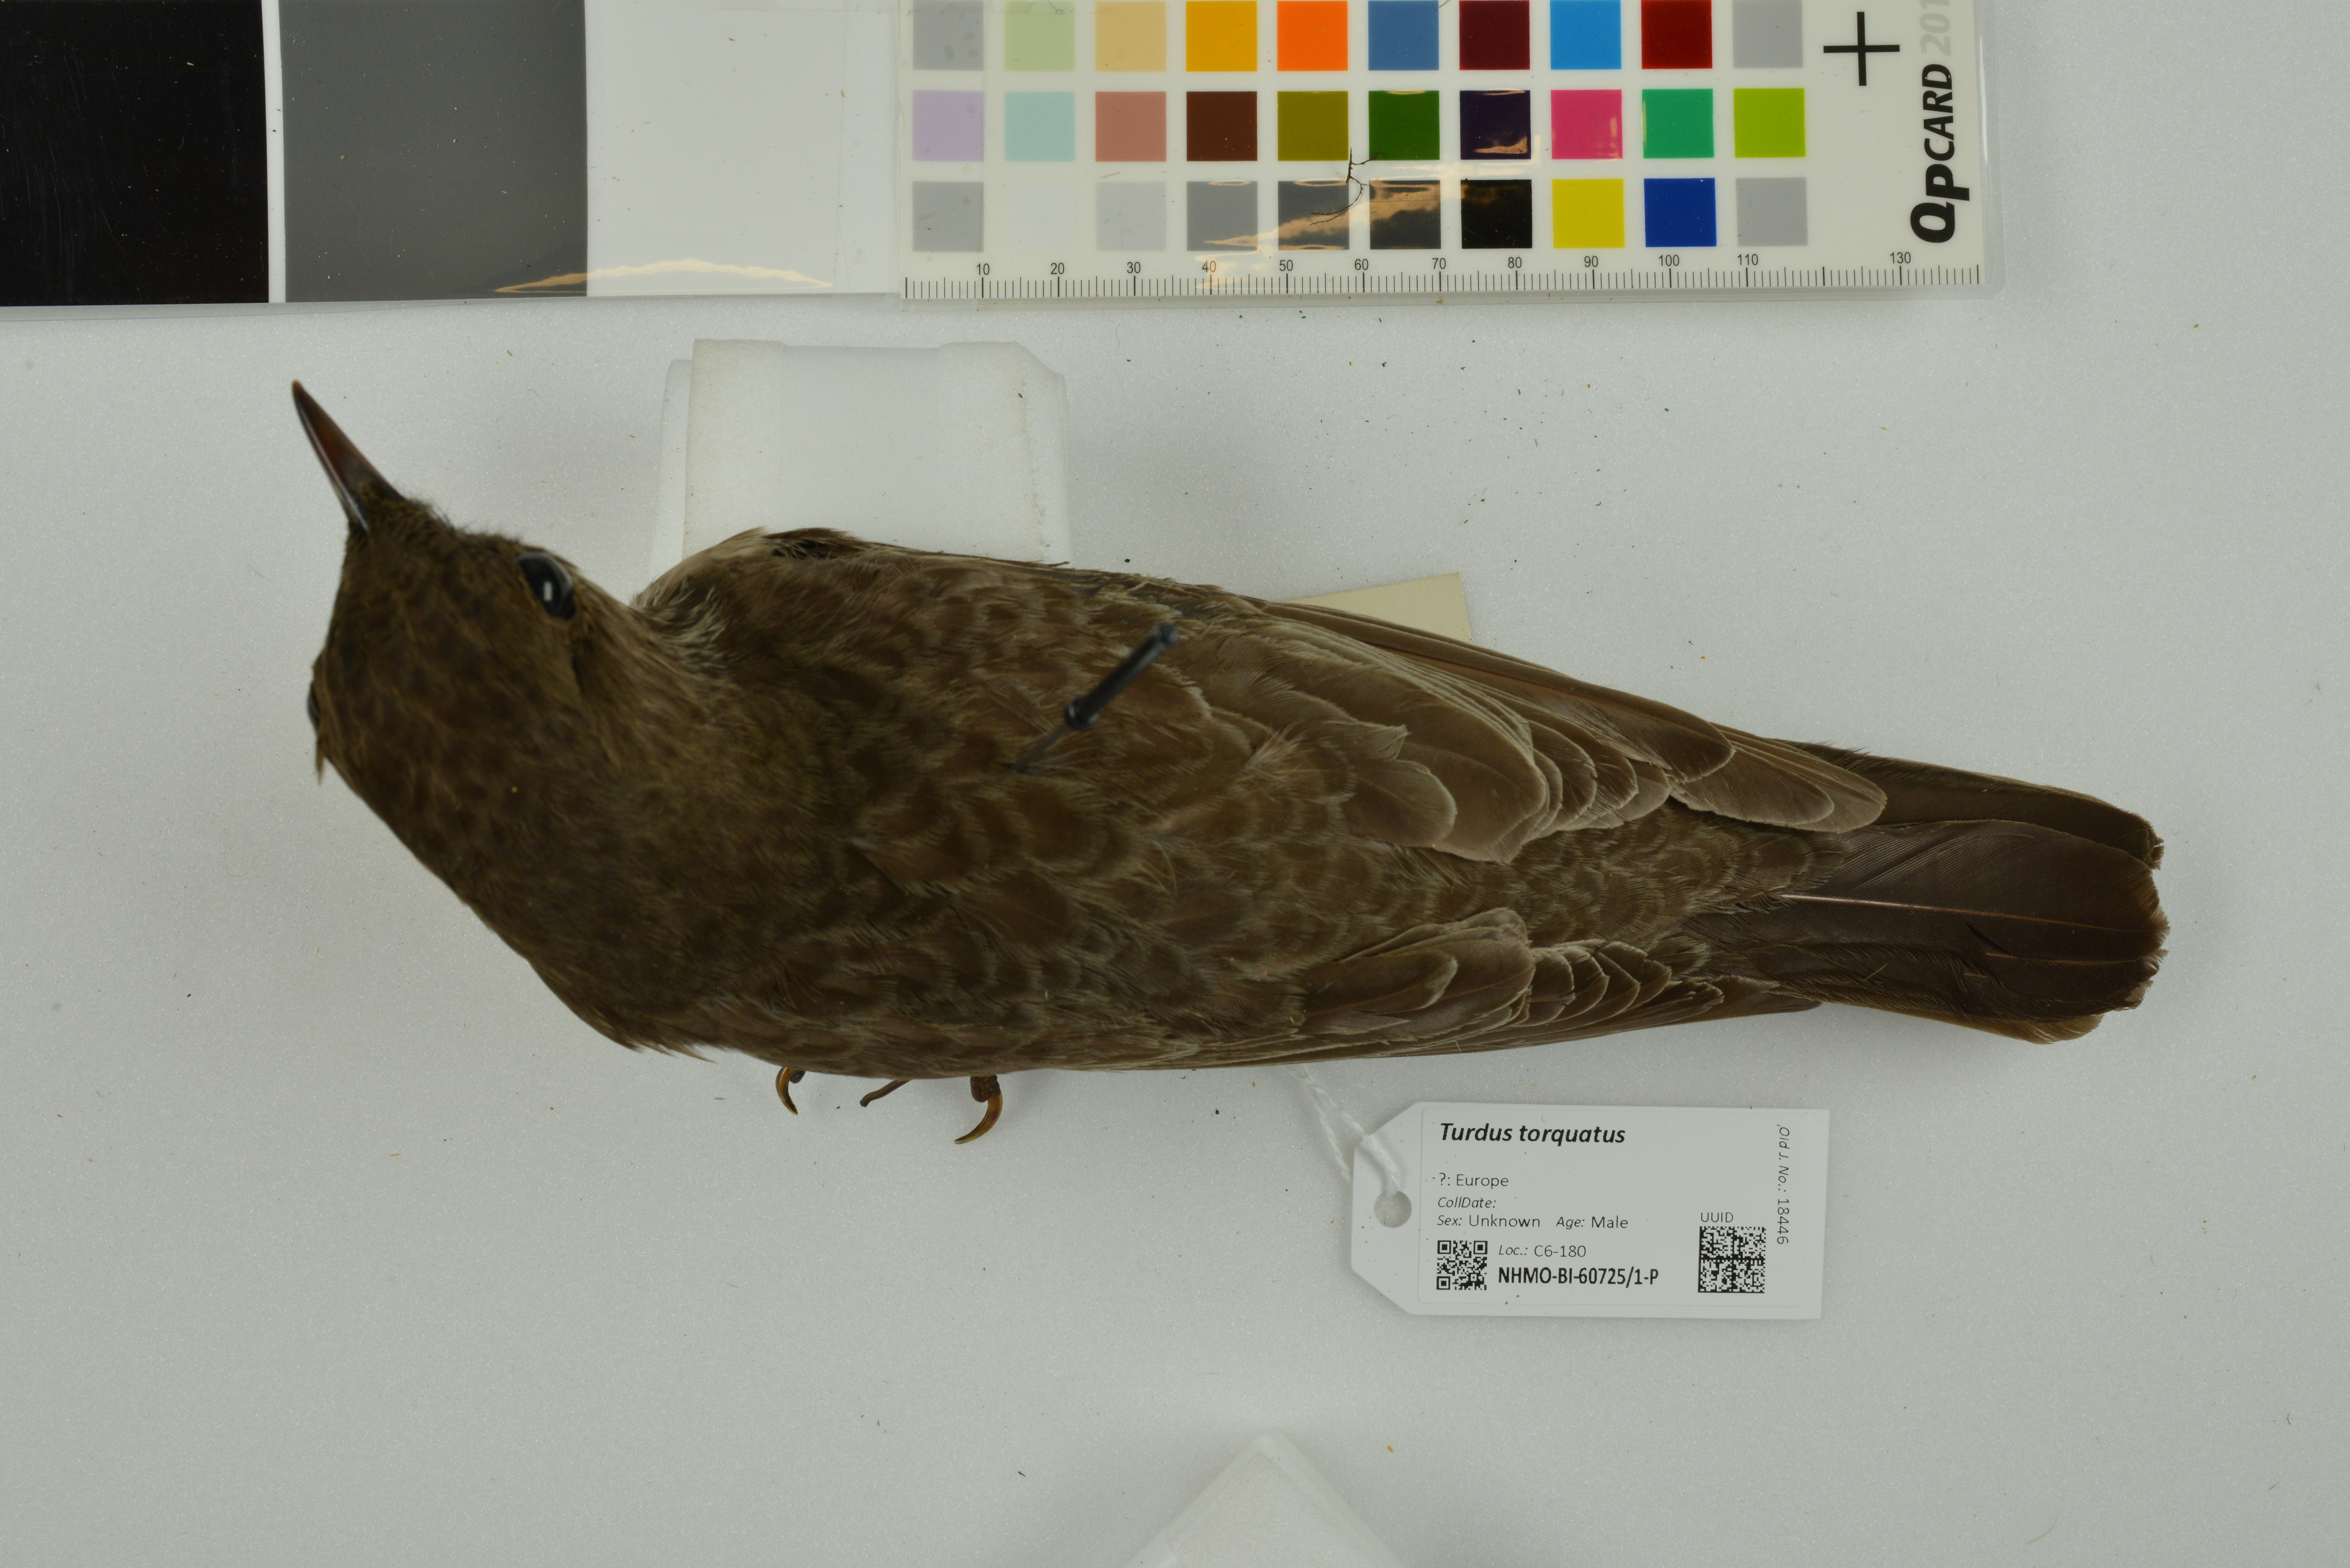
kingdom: Animalia
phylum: Chordata
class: Aves
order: Passeriformes
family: Turdidae
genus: Turdus
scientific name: Turdus torquatus
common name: Ring ouzel
